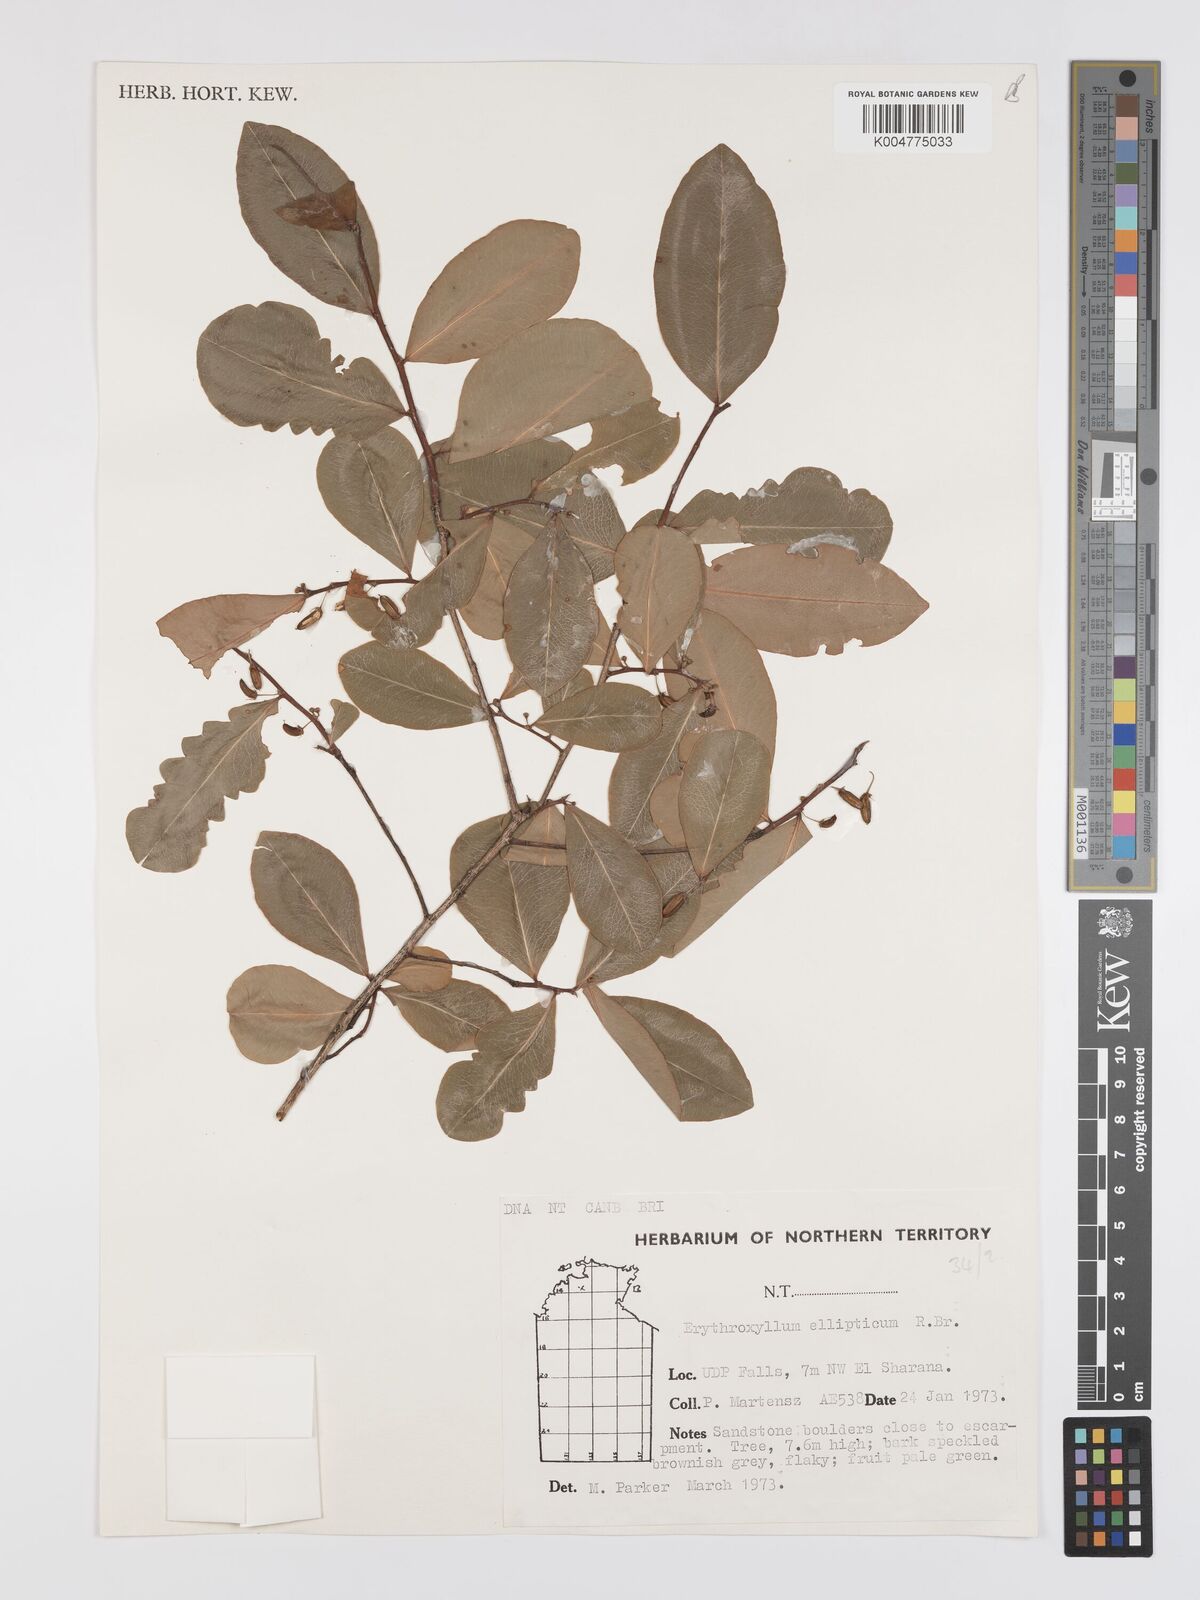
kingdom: Plantae
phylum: Tracheophyta
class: Magnoliopsida
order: Malpighiales
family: Erythroxylaceae
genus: Erythroxylum
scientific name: Erythroxylum
